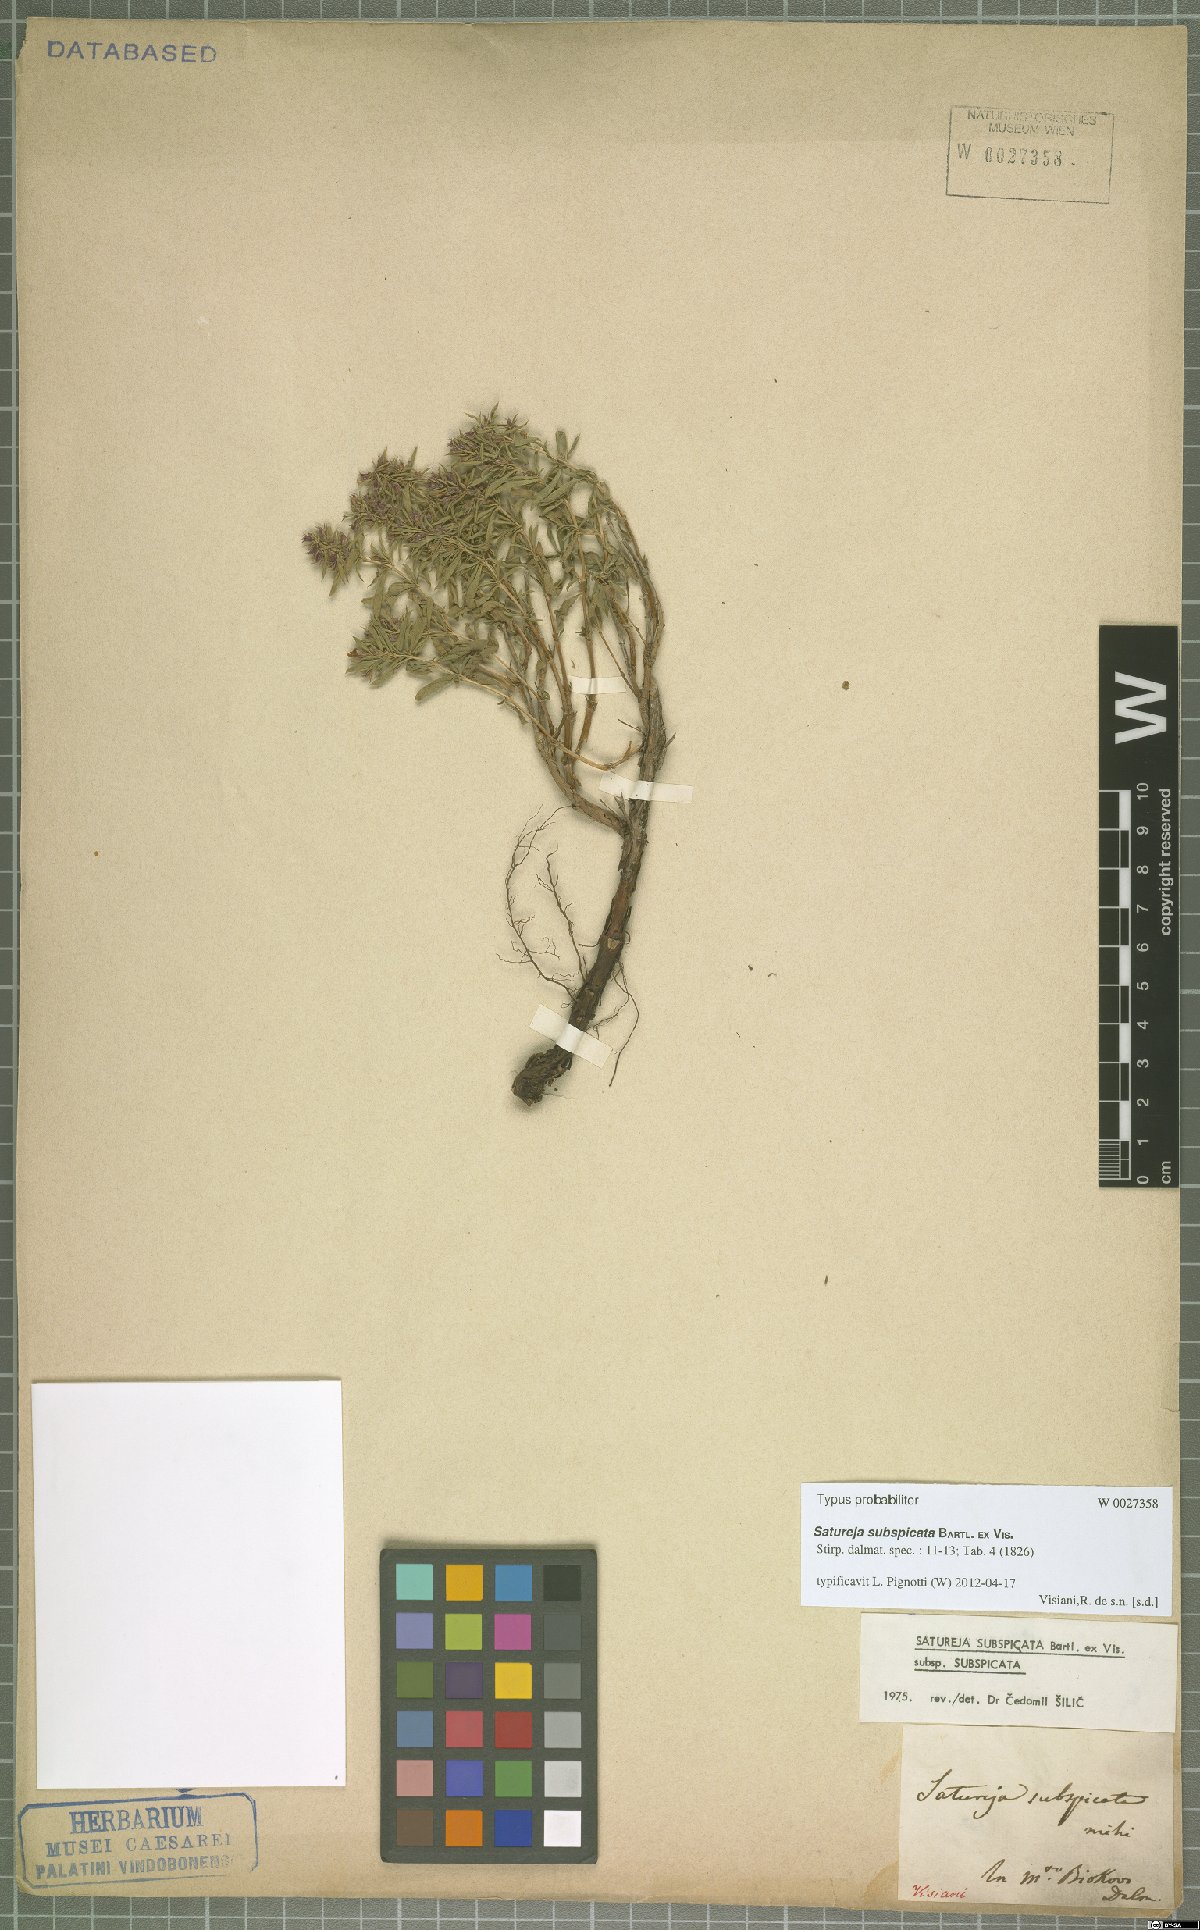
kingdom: Plantae
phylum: Tracheophyta
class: Magnoliopsida
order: Lamiales
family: Lamiaceae
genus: Satureja
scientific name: Satureja subspicata
